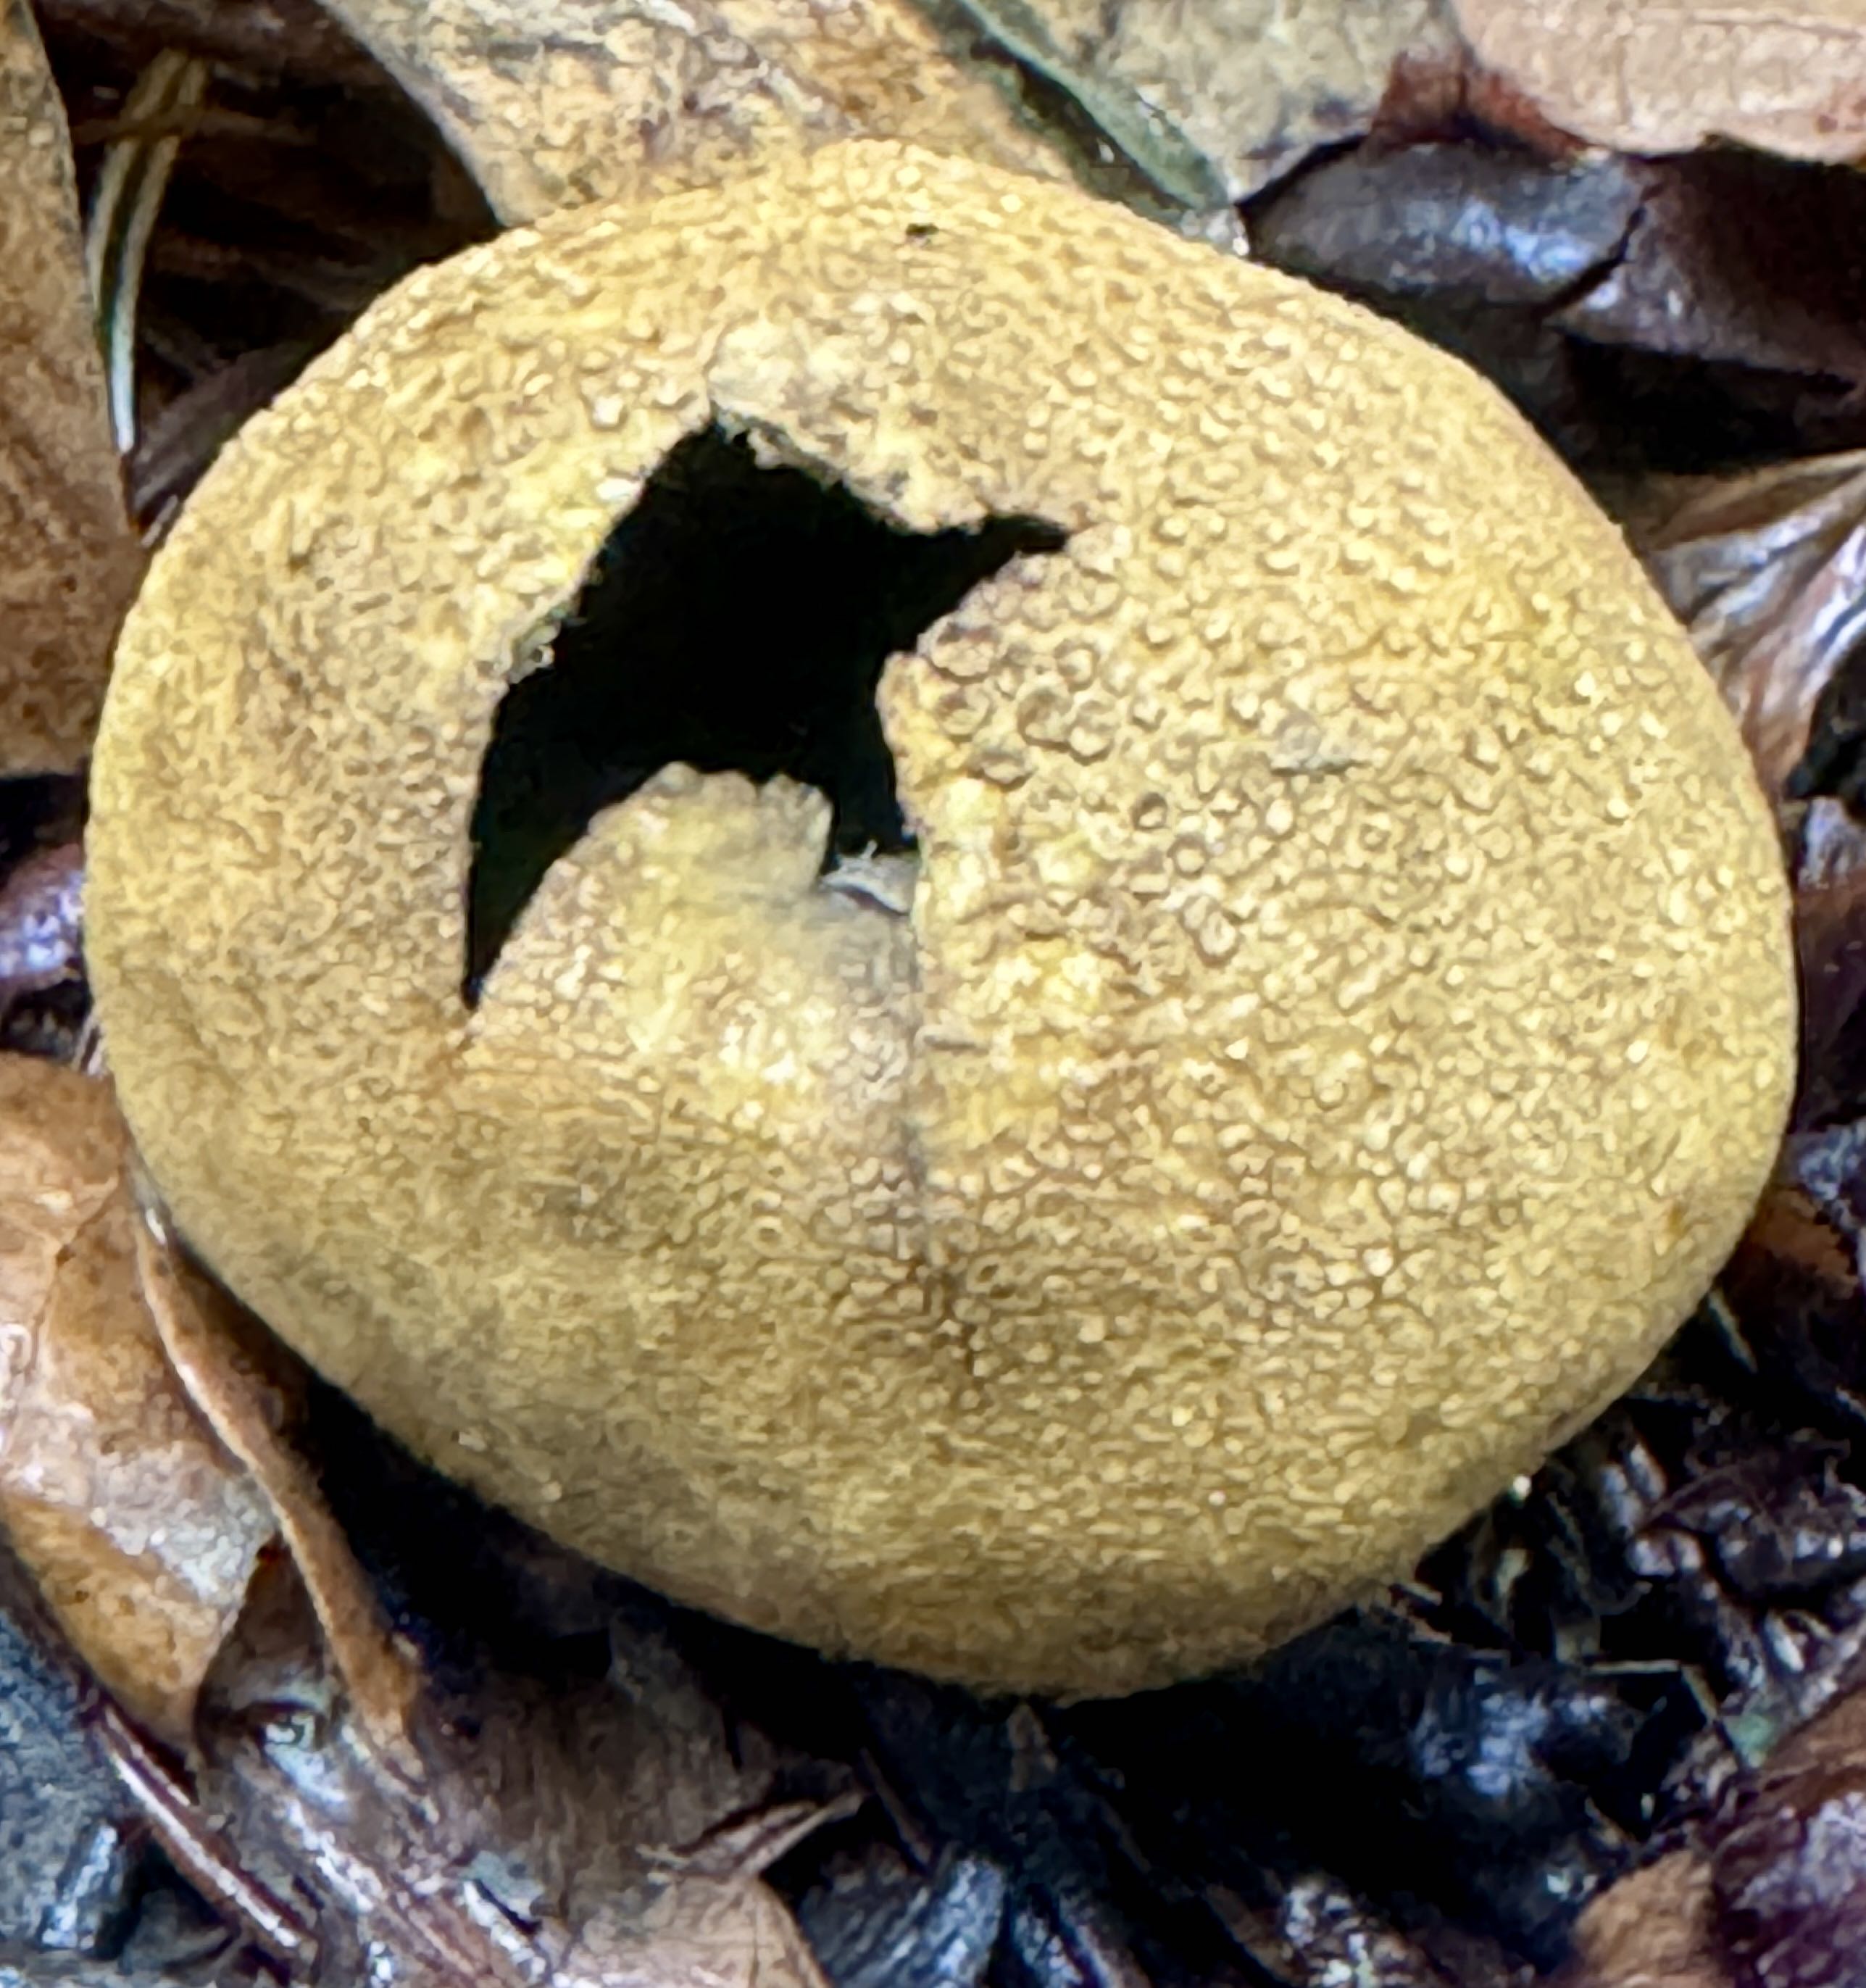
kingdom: Fungi
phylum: Basidiomycota
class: Agaricomycetes
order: Boletales
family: Sclerodermataceae
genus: Scleroderma
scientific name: Scleroderma citrinum
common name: almindelig bruskbold
